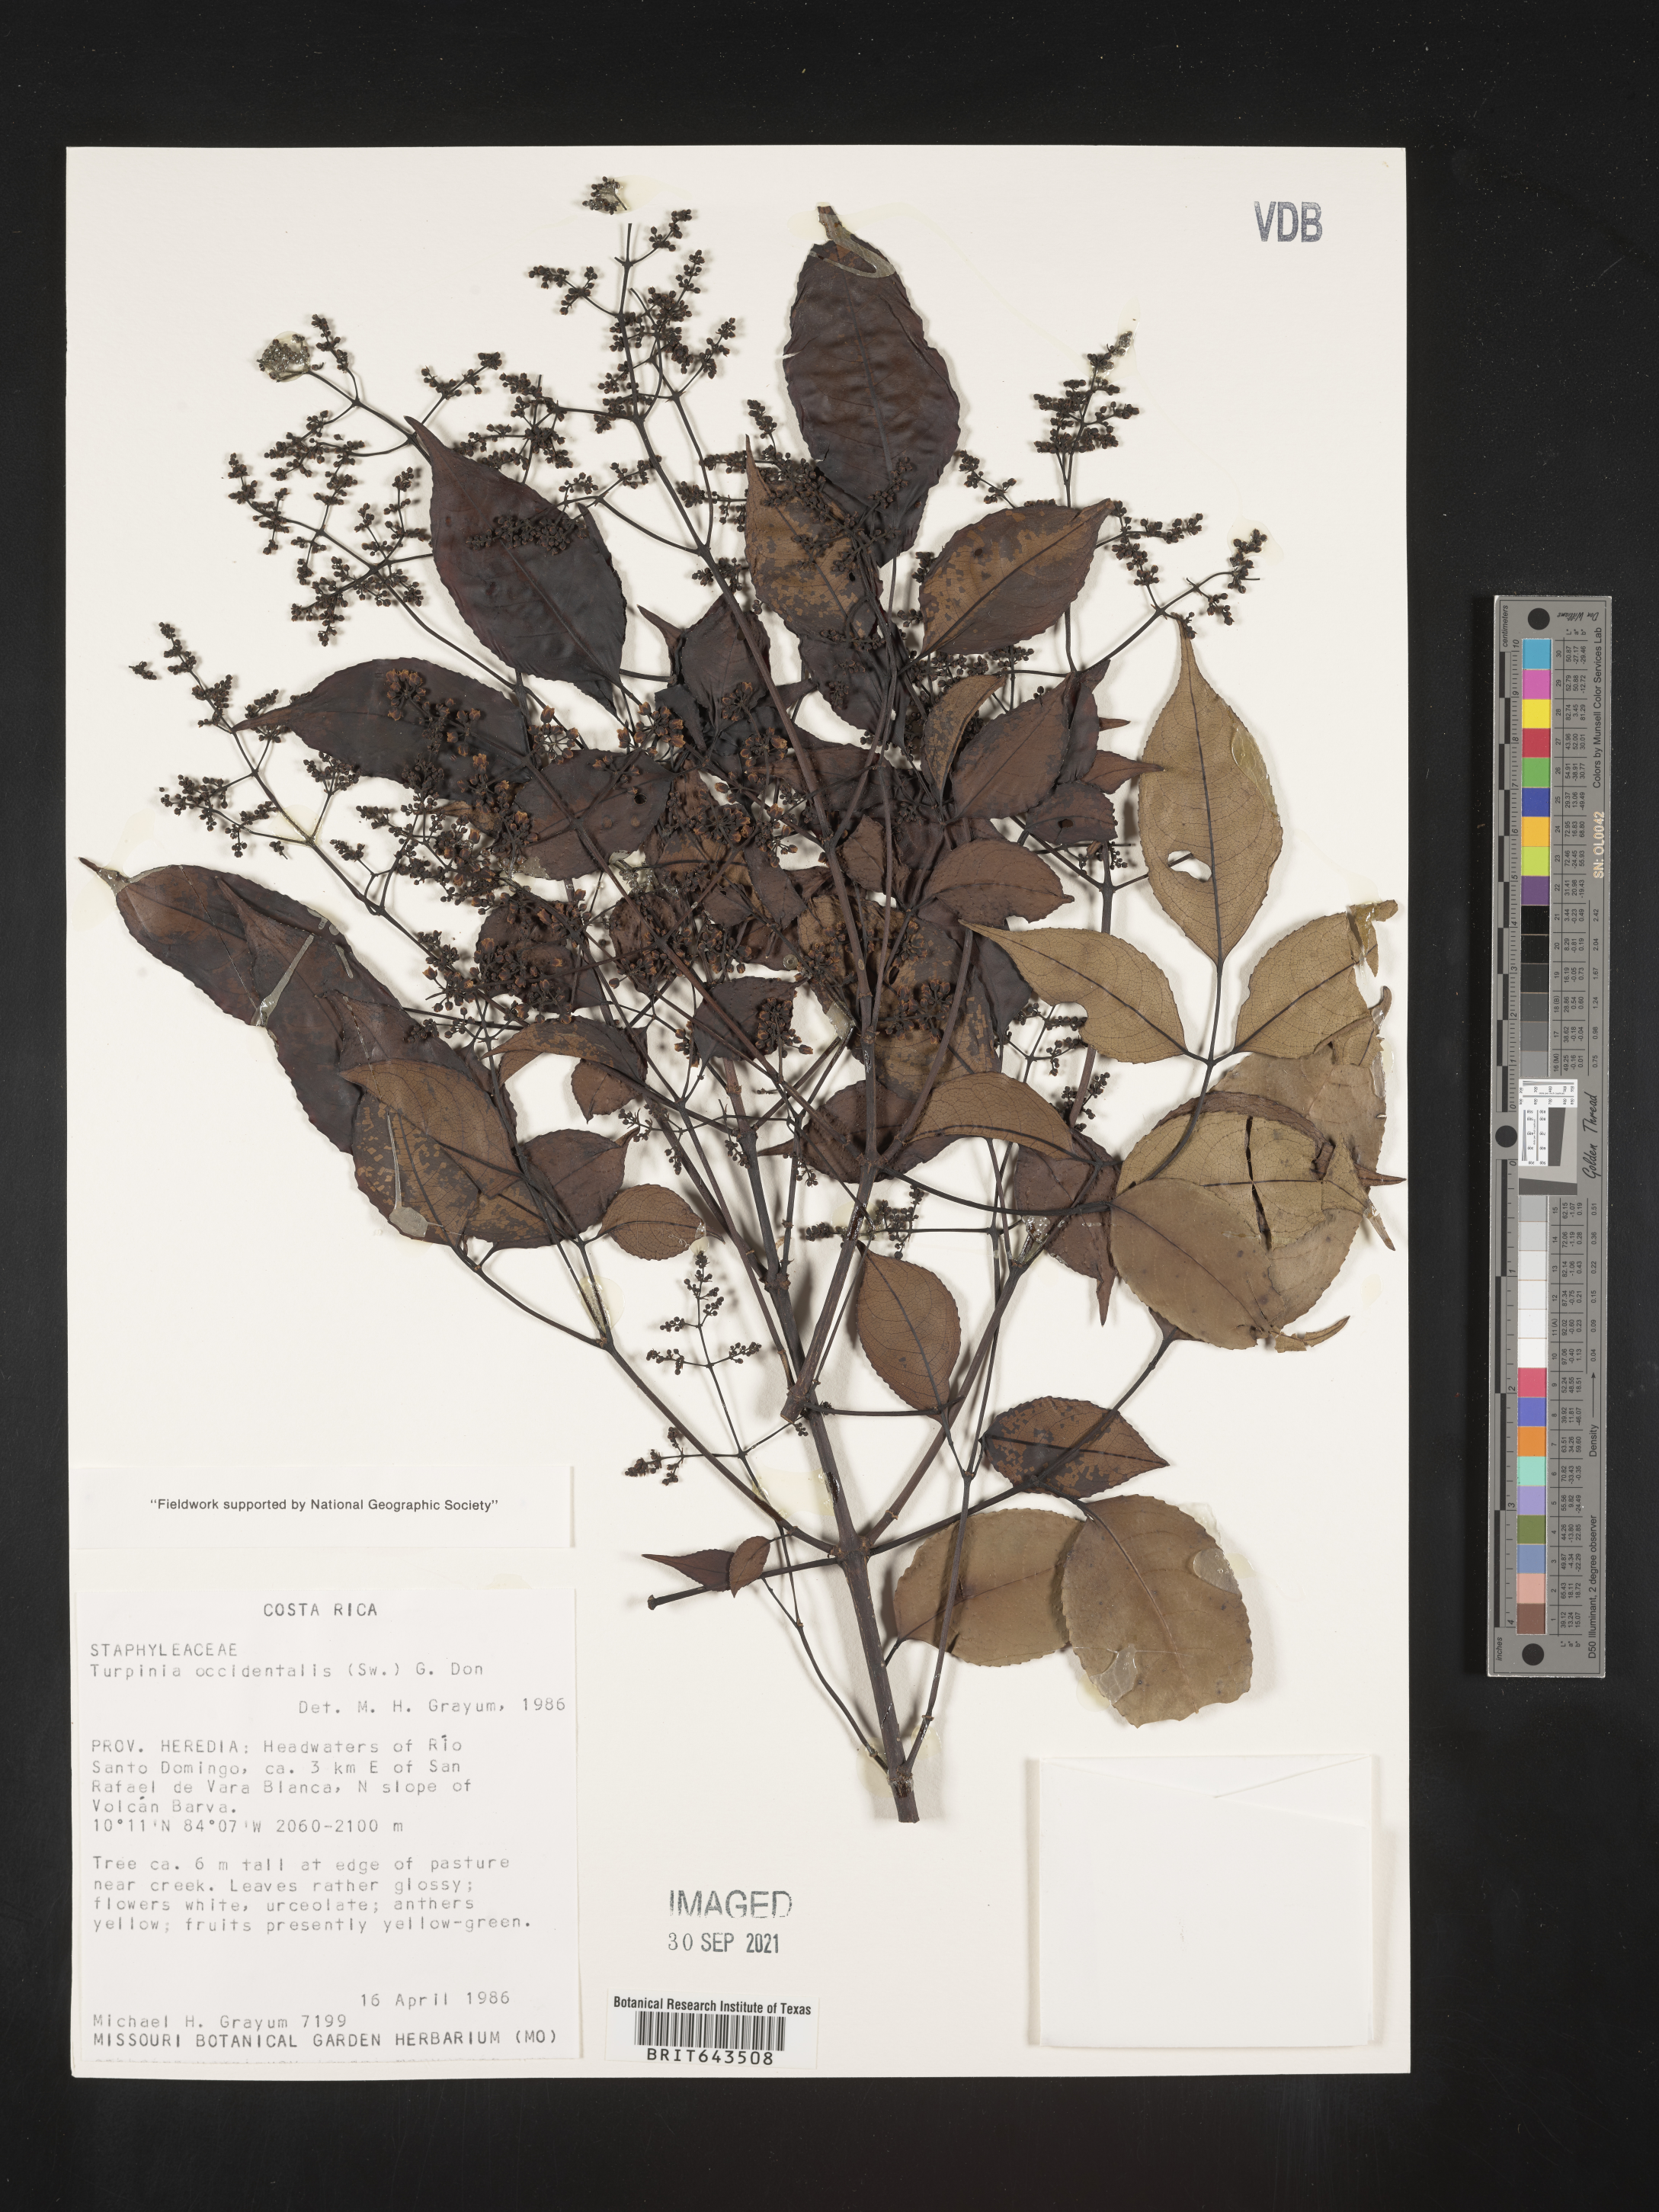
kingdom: Plantae
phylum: Tracheophyta
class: Magnoliopsida
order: Crossosomatales
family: Staphyleaceae
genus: Turpinia
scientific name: Turpinia
